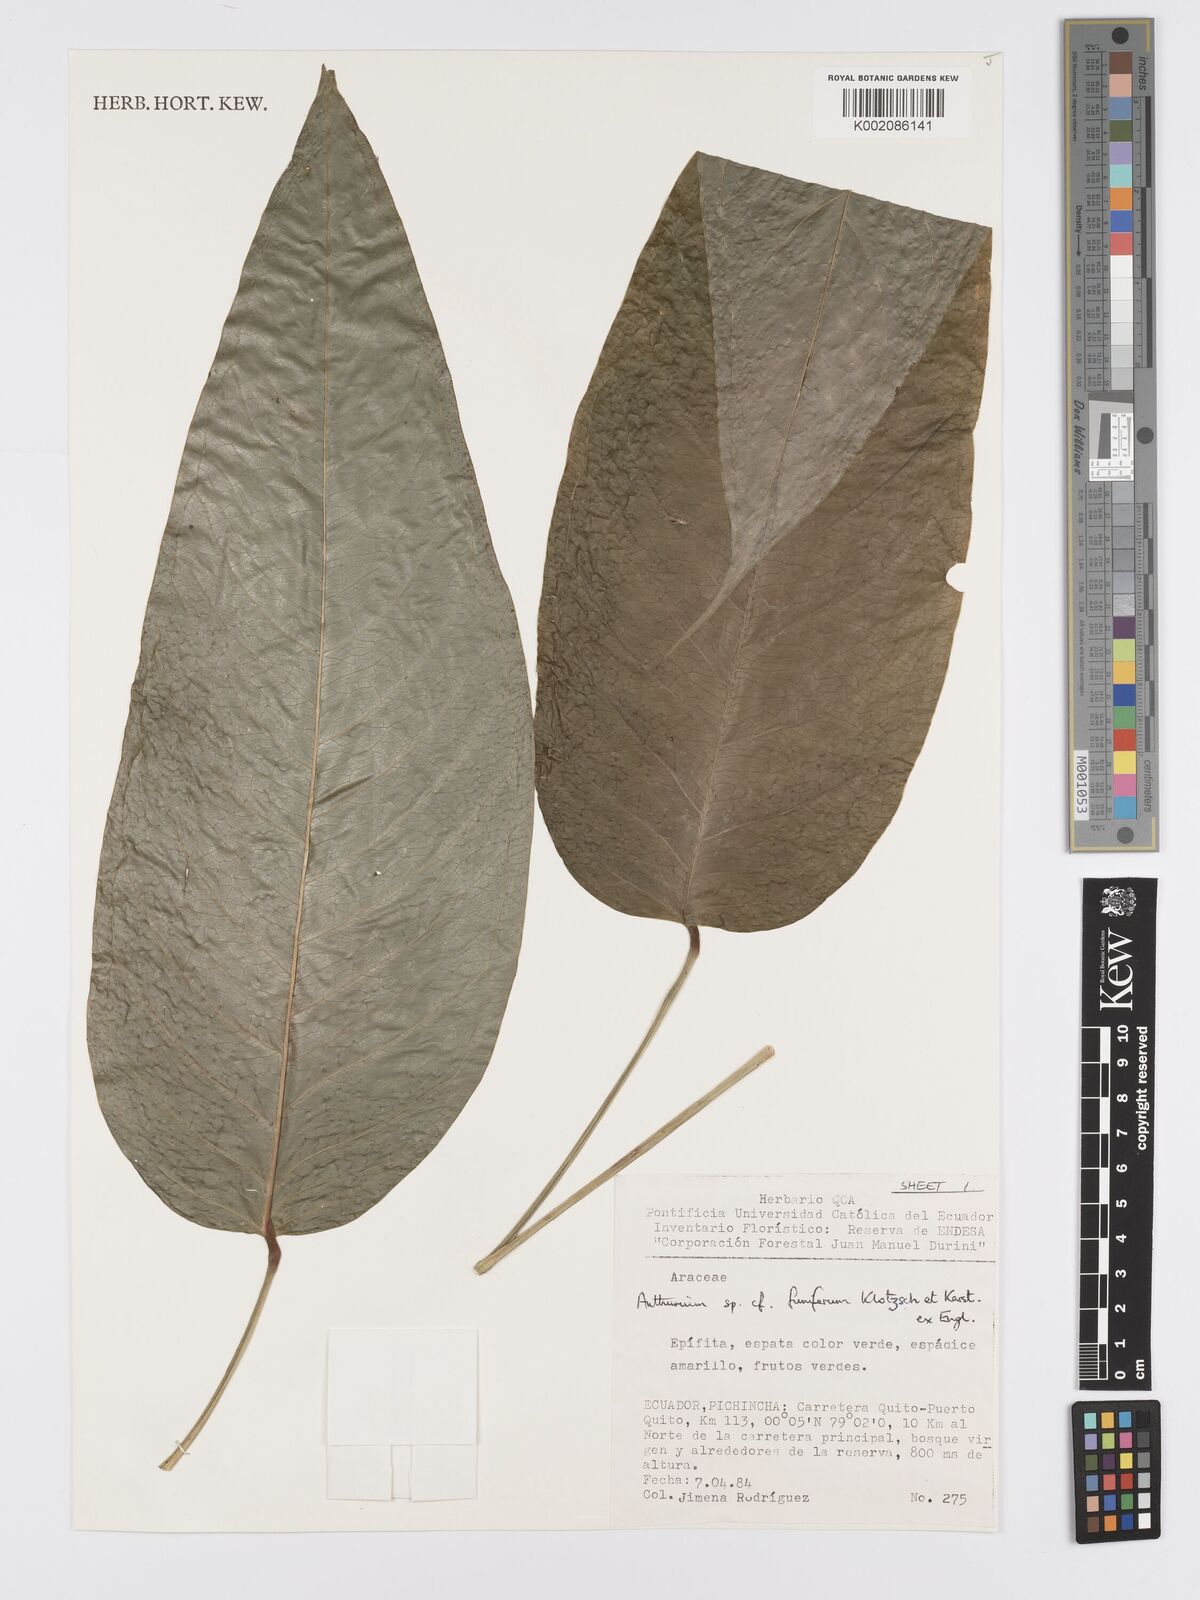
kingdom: Plantae
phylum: Tracheophyta
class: Liliopsida
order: Alismatales
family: Araceae
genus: Anthurium
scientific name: Anthurium funiferum
